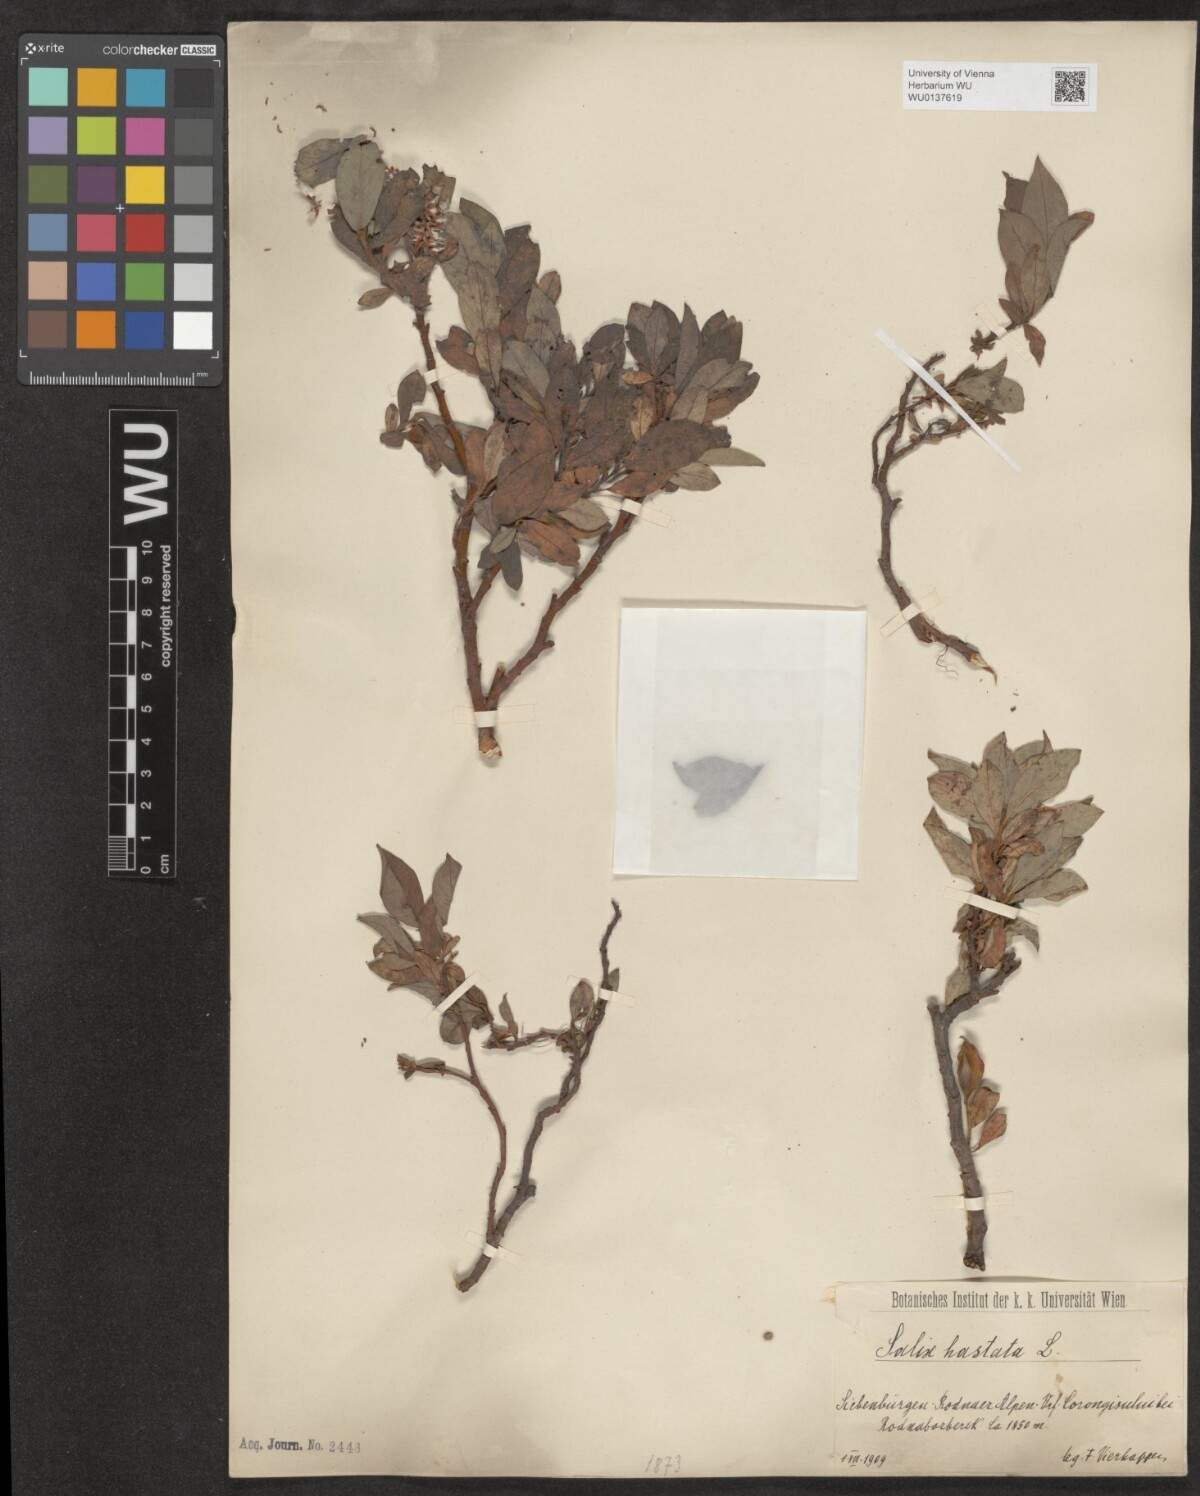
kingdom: Plantae
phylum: Tracheophyta
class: Magnoliopsida
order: Malpighiales
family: Salicaceae
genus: Salix
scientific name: Salix hastata
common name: Halberd willow
